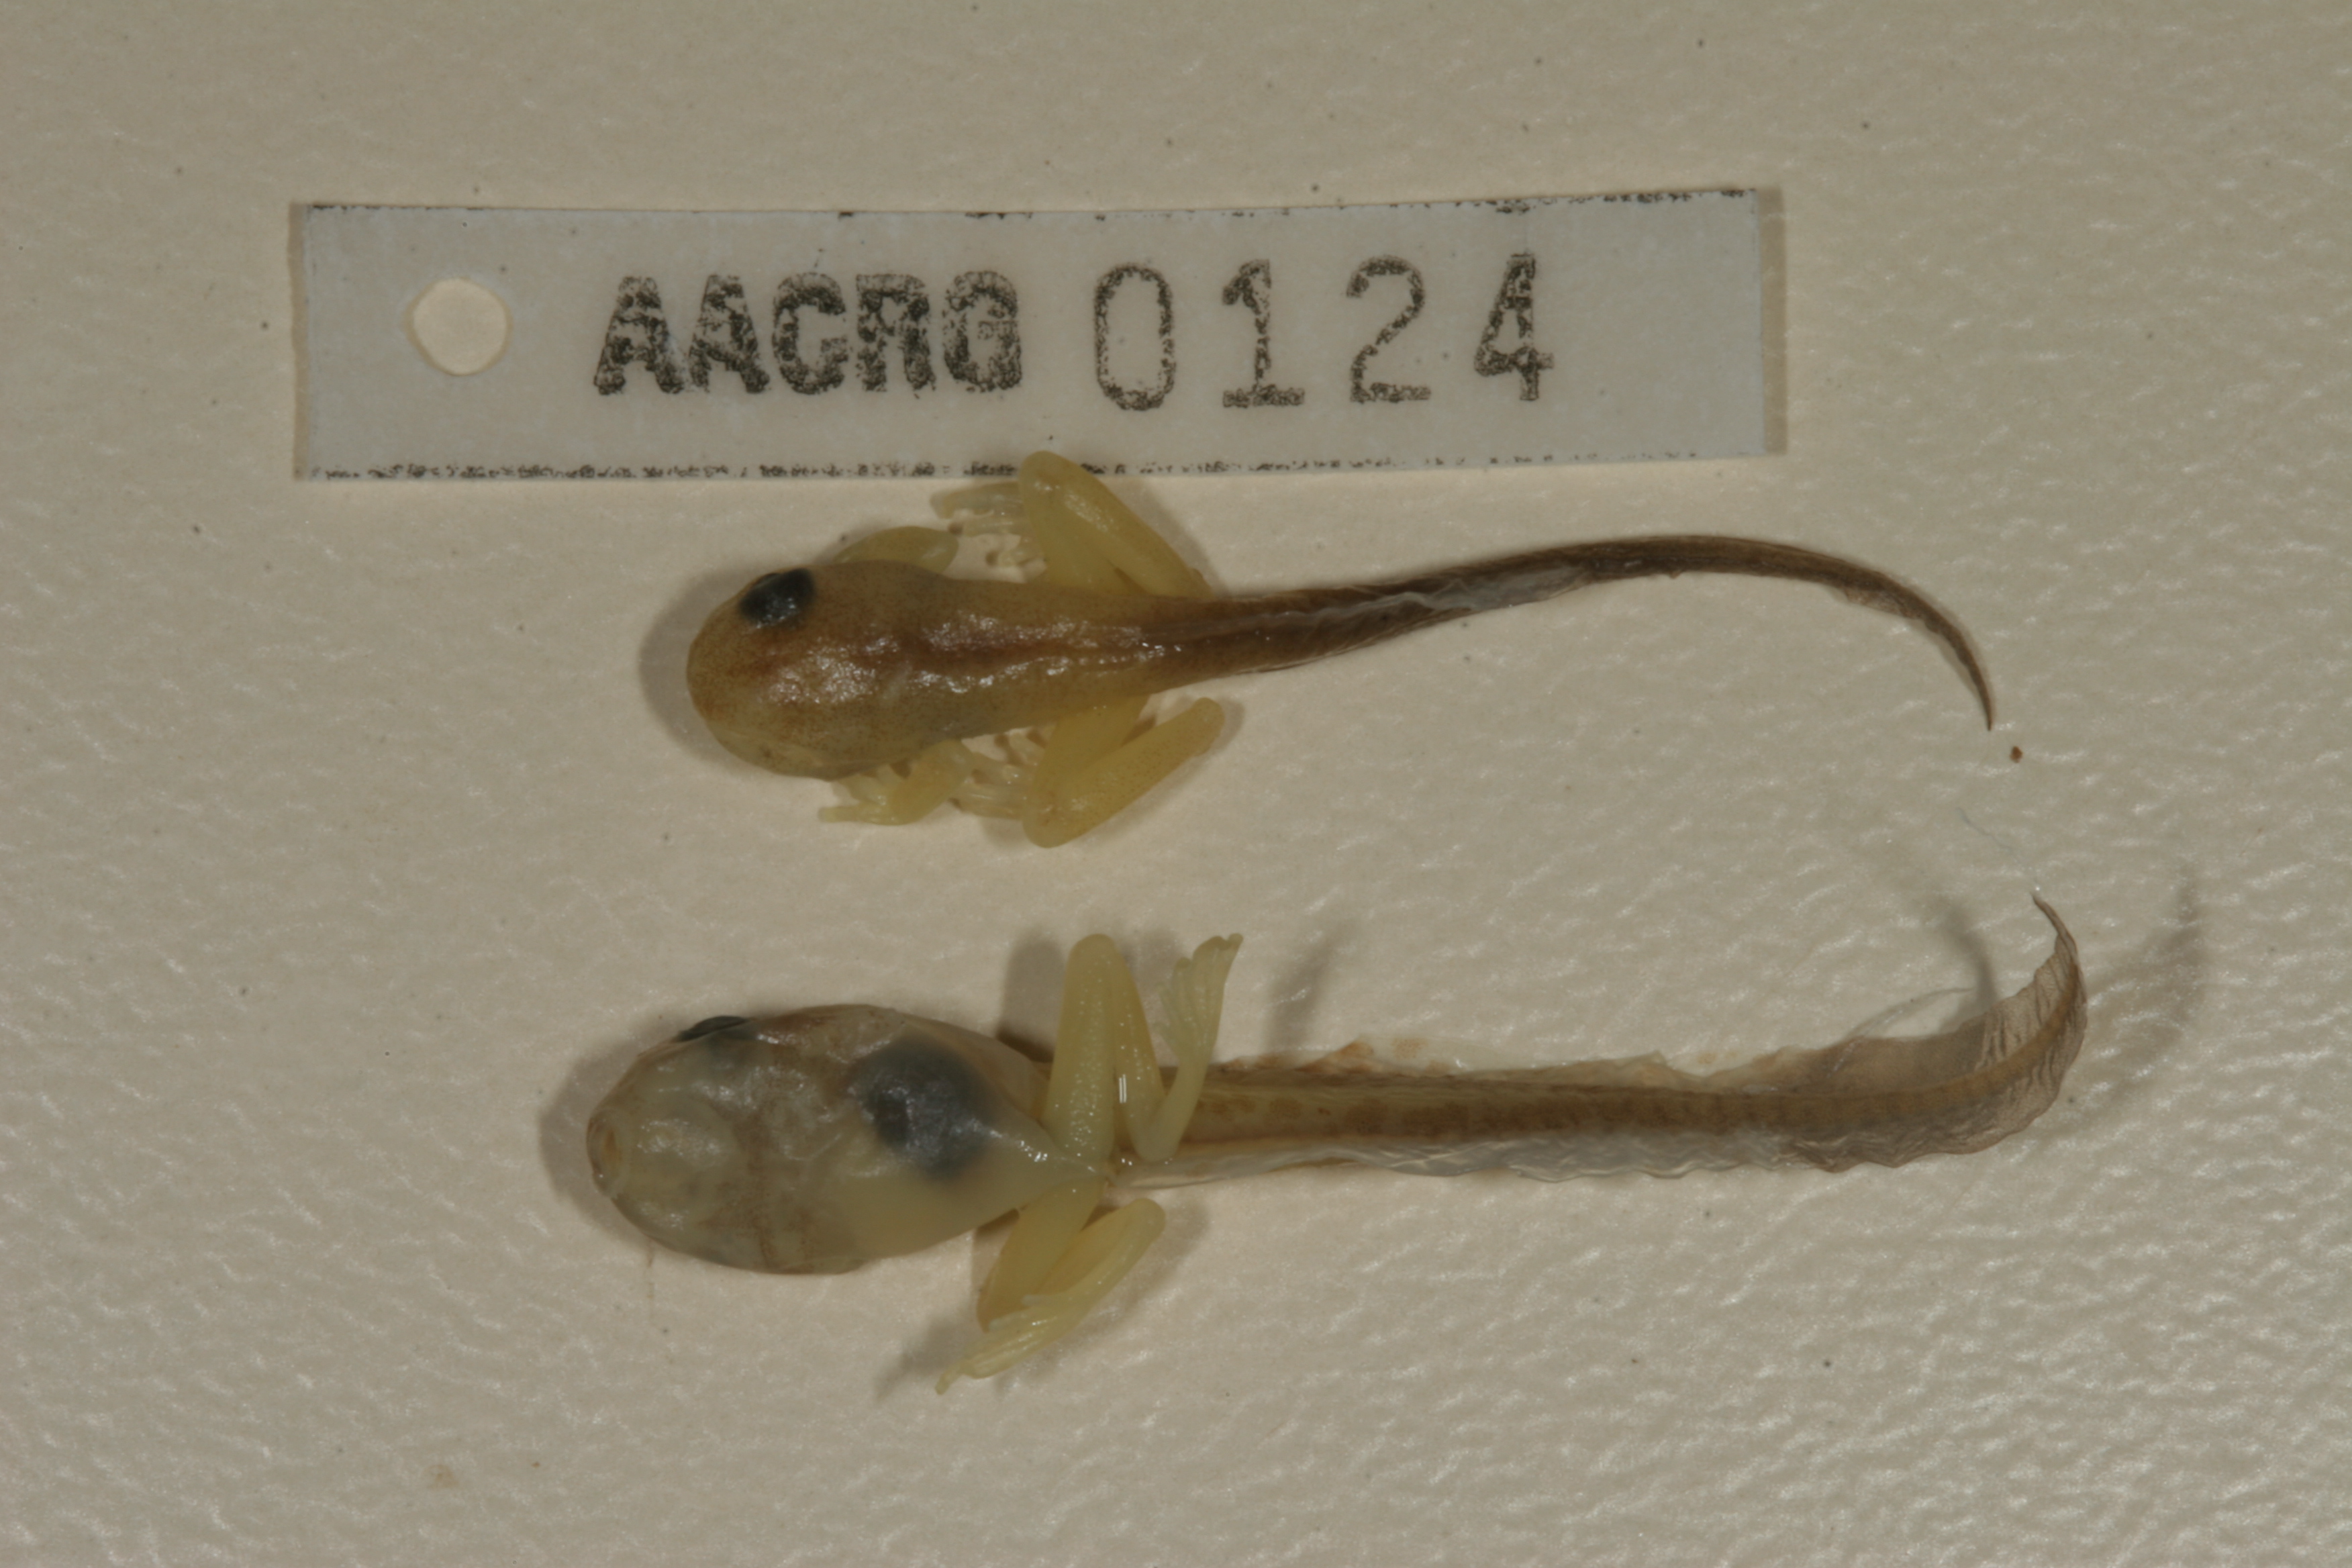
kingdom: Animalia
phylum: Chordata
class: Amphibia
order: Anura
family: Hyperoliidae
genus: Hyperolius
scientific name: Hyperolius pusillus
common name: Water lily reed frog
